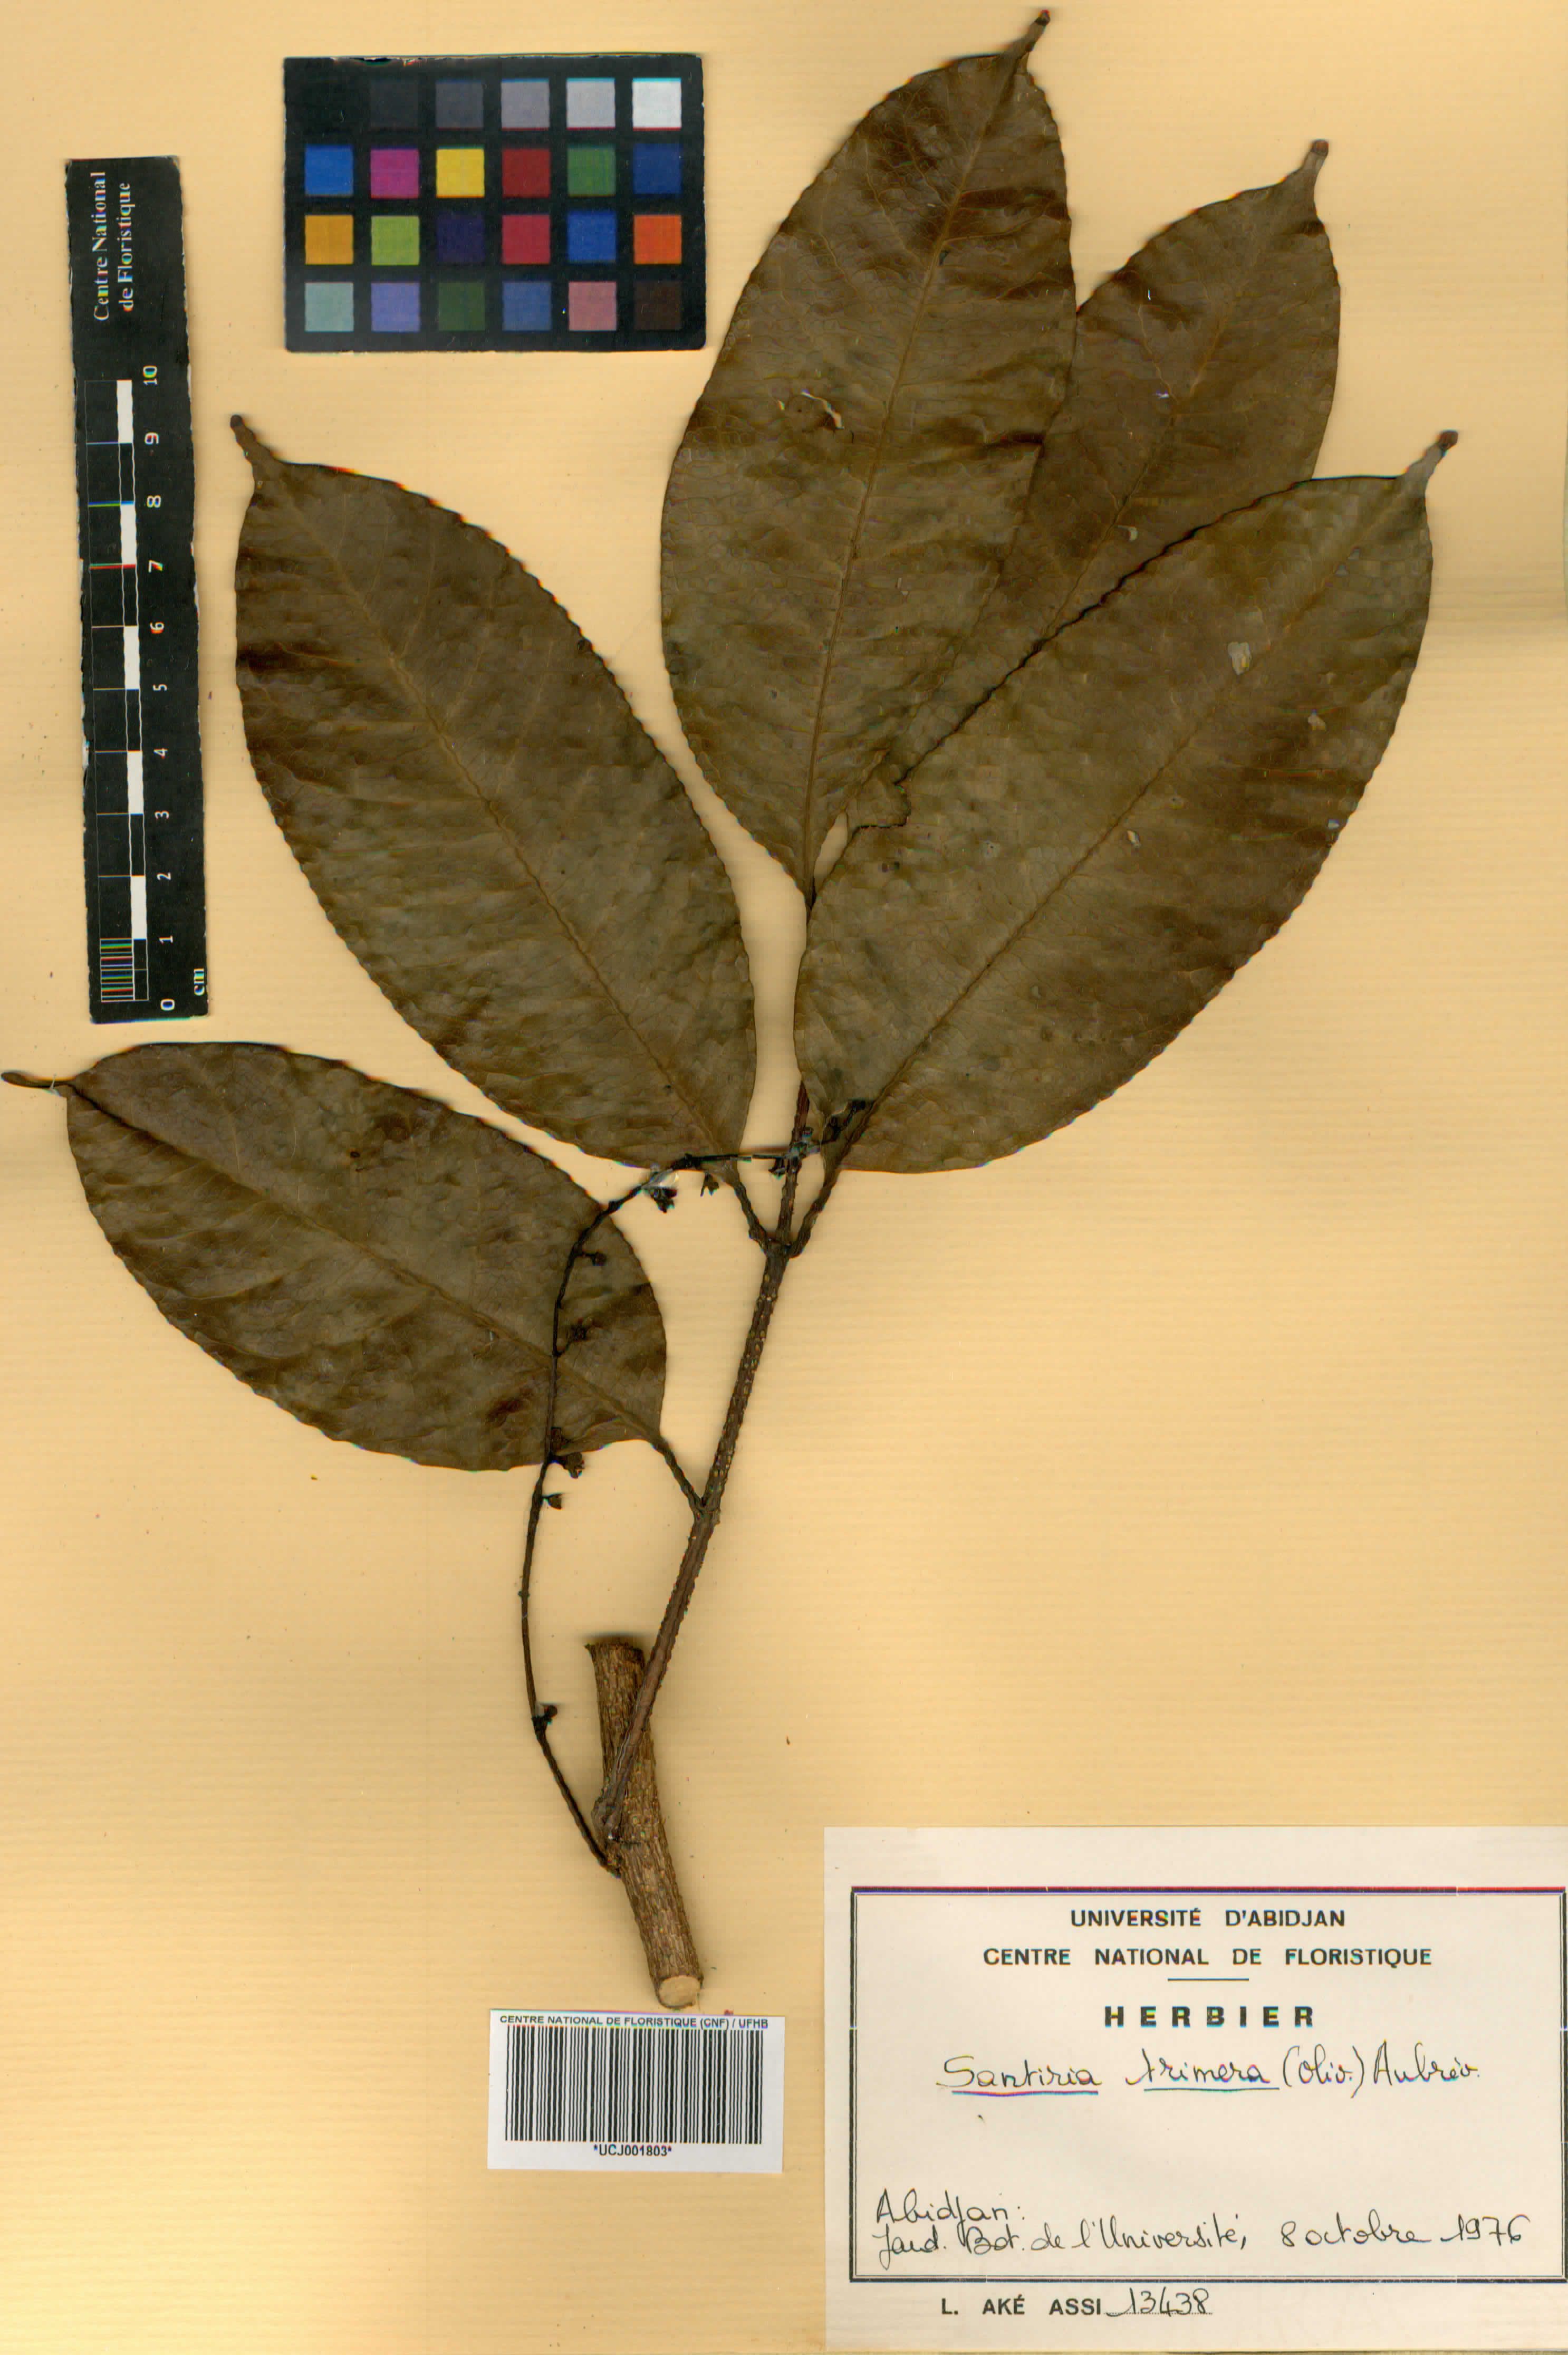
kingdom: Plantae
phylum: Tracheophyta
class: Magnoliopsida
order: Sapindales
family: Burseraceae
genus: Pachylobus
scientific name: Pachylobus trimerus
